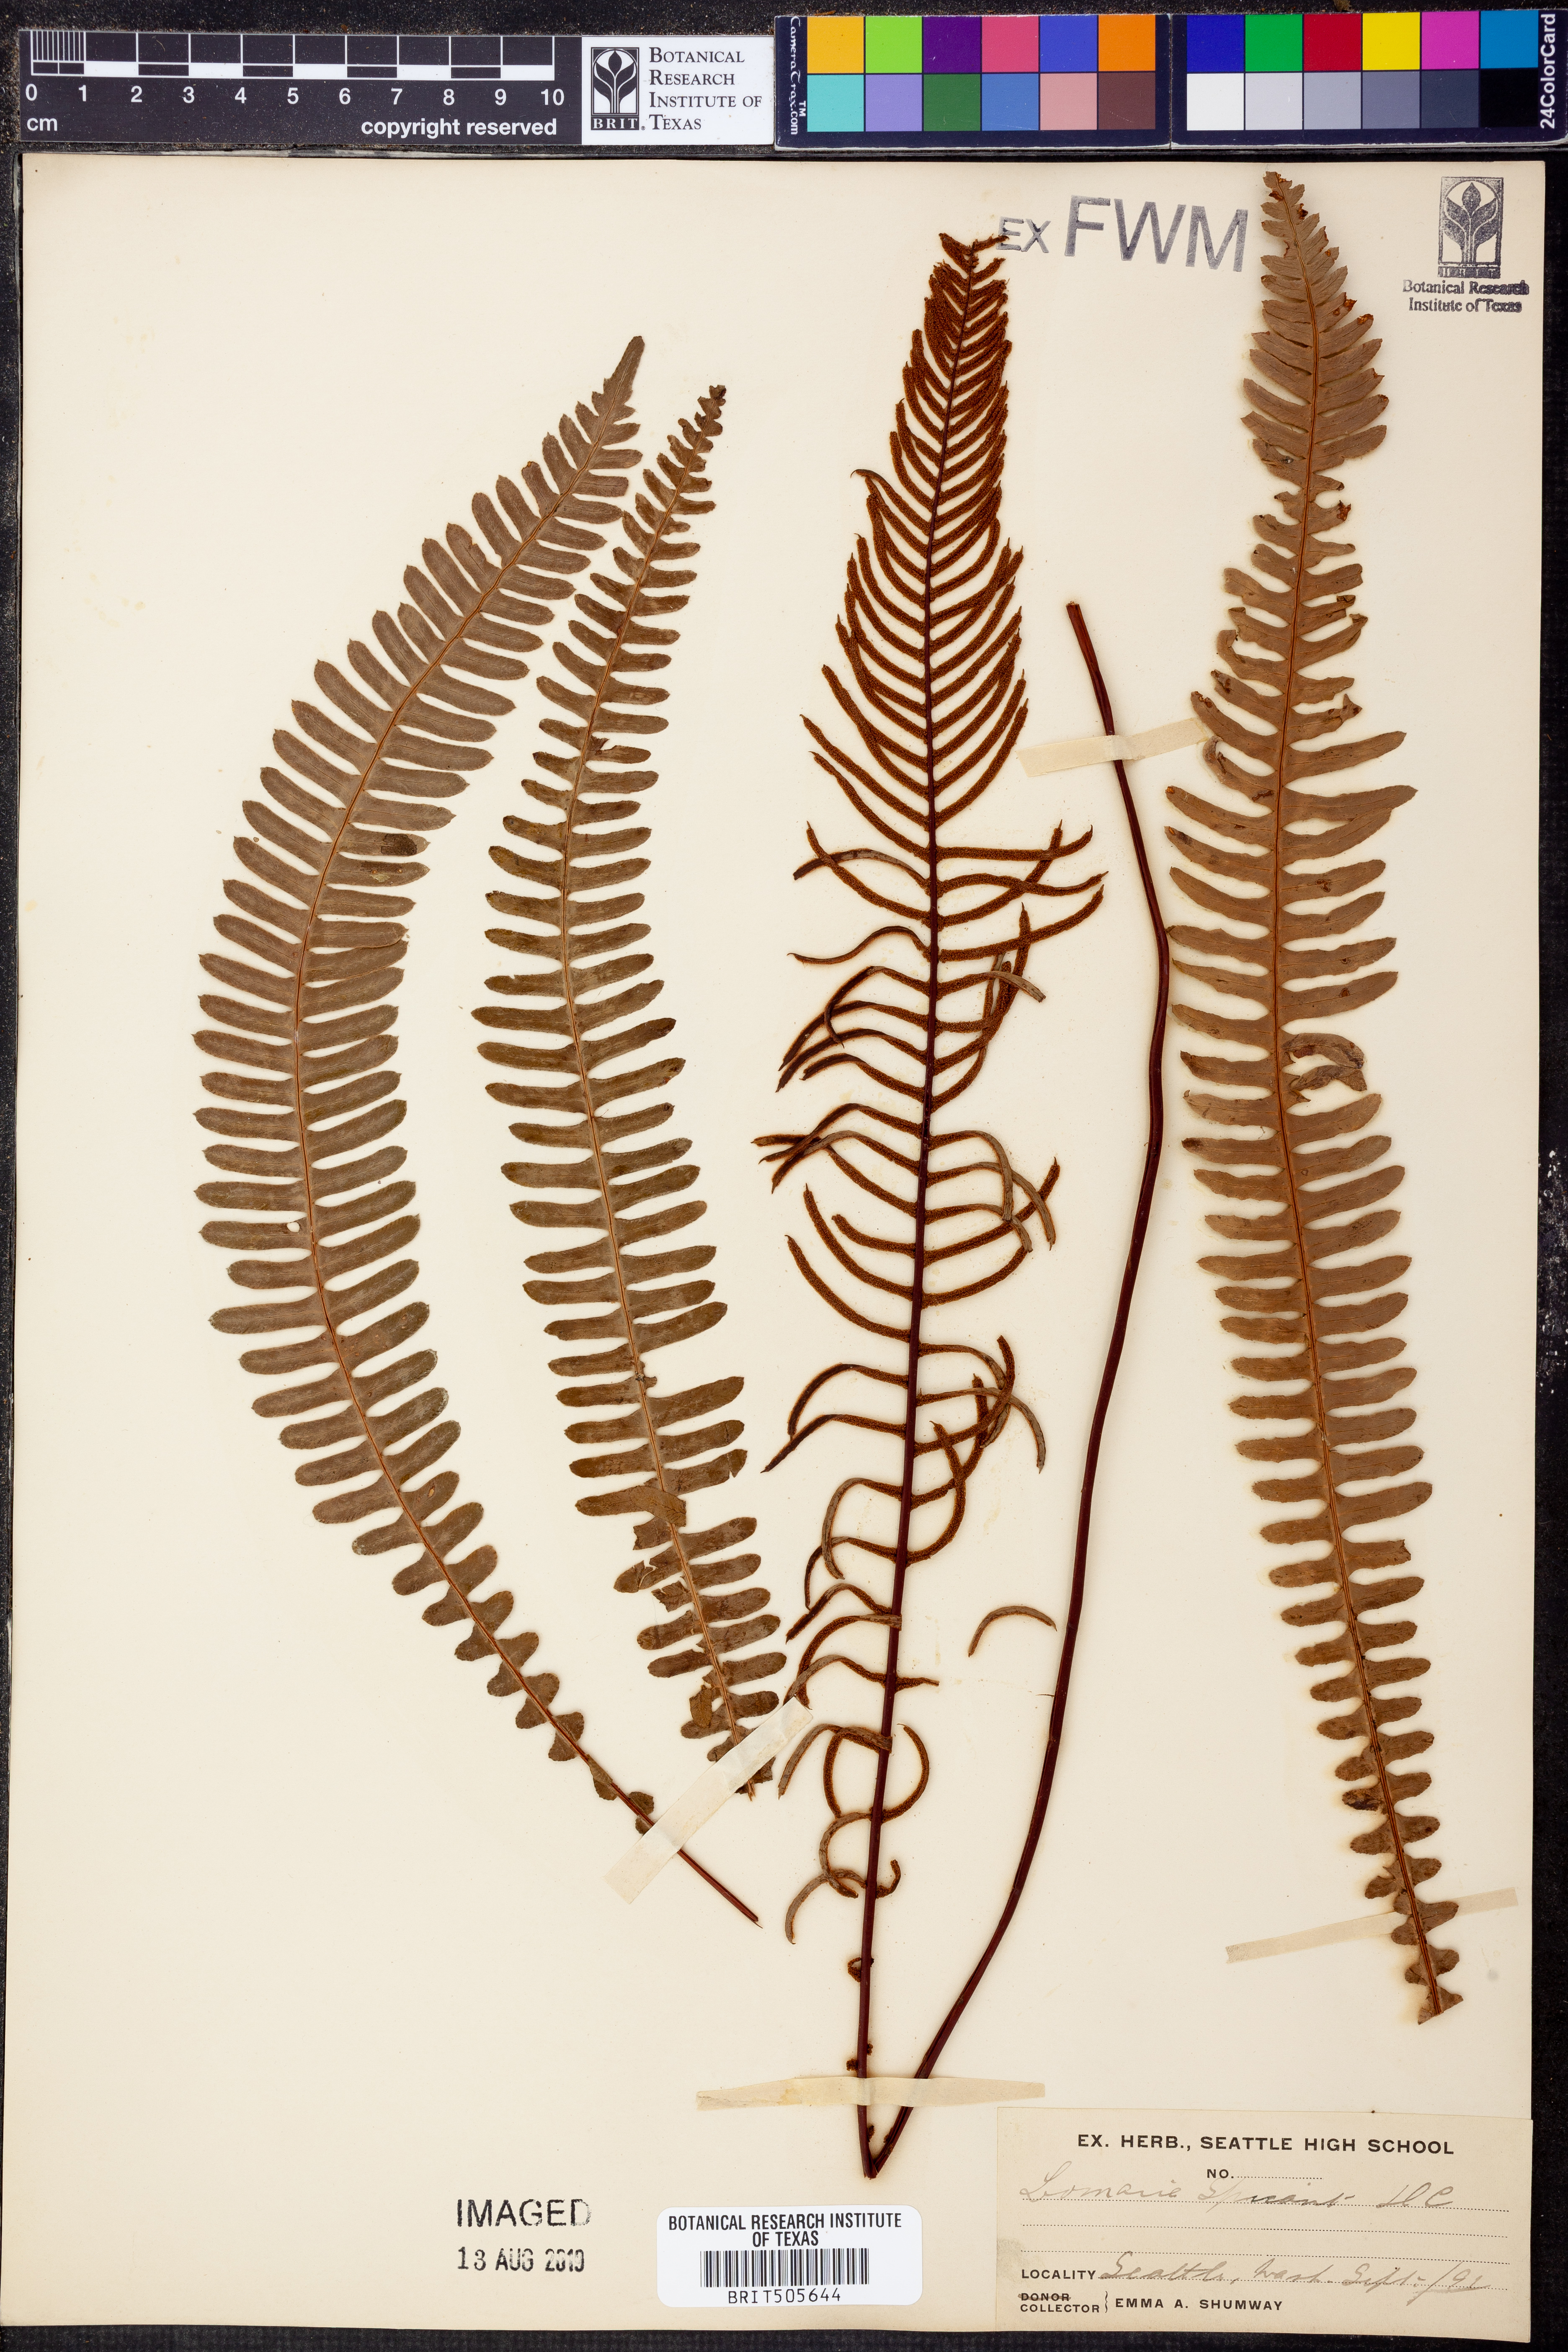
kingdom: Plantae
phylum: Tracheophyta
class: Polypodiopsida
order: Polypodiales
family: Blechnaceae
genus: Struthiopteris
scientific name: Struthiopteris spicant
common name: Deer fern
